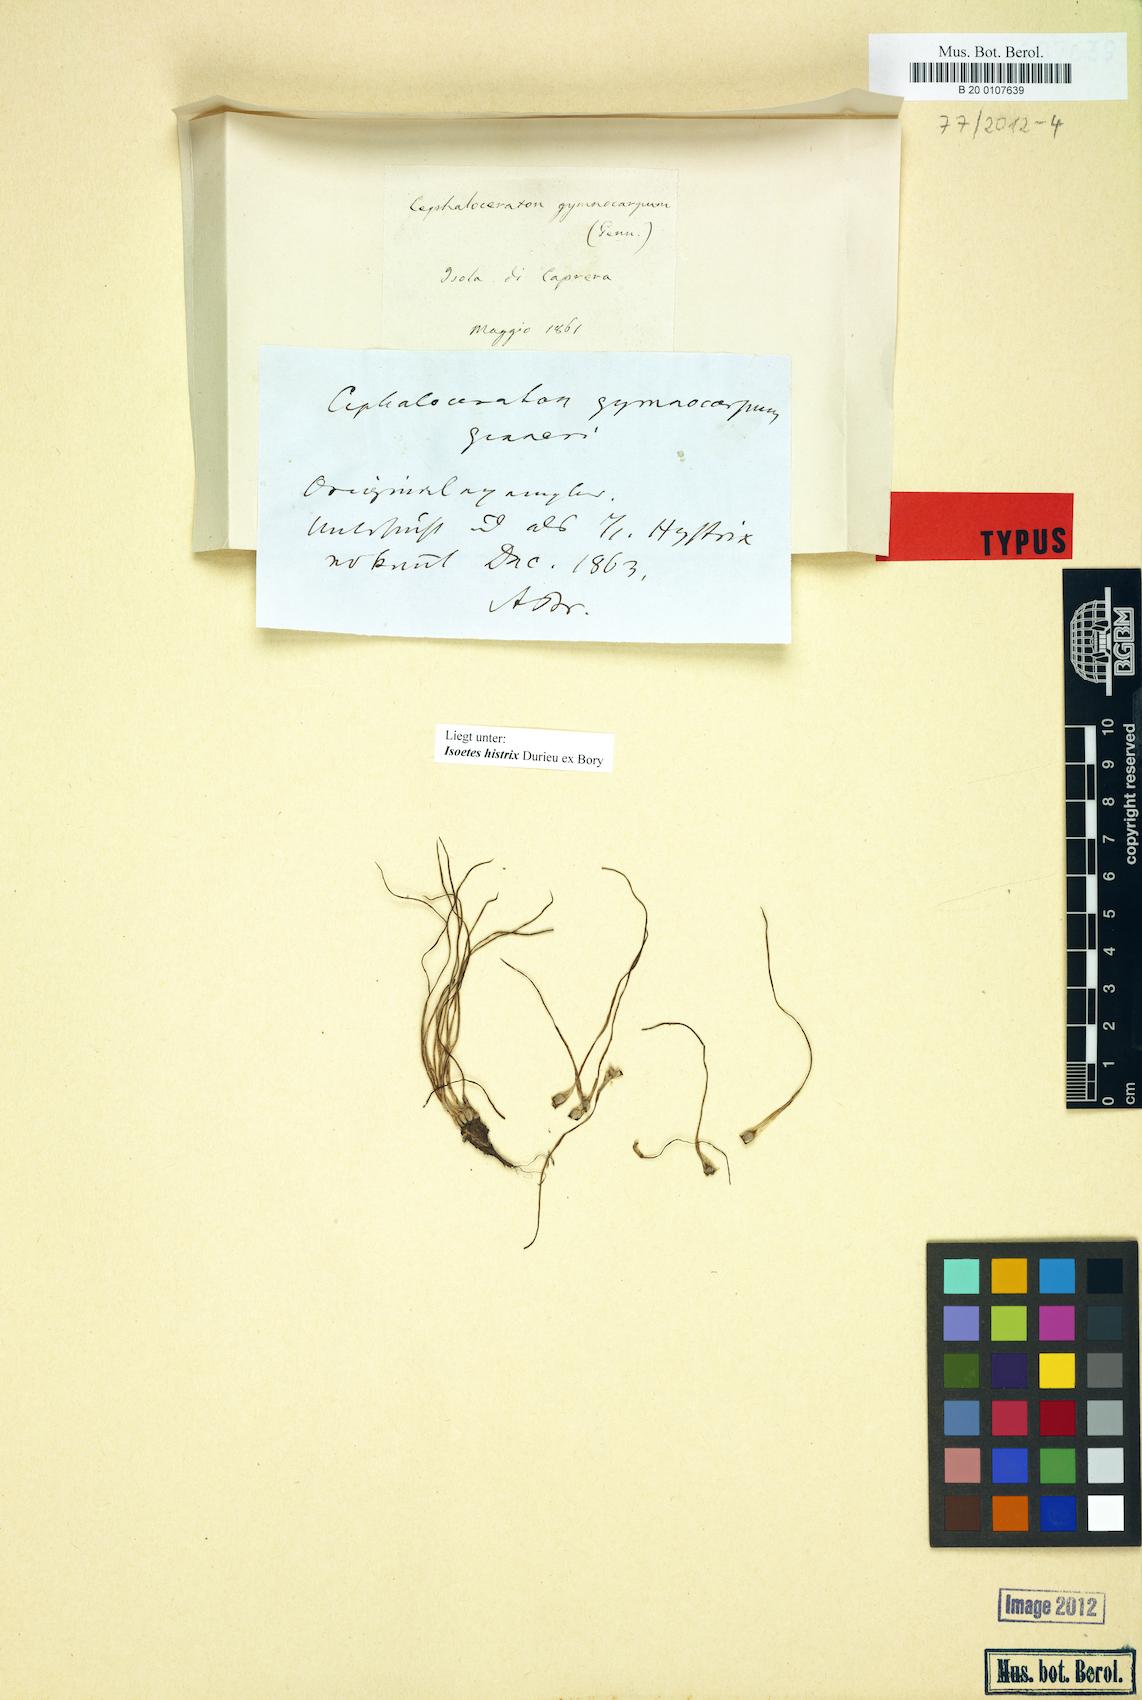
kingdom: Plantae
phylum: Tracheophyta
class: Lycopodiopsida
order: Isoetales
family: Isoetaceae
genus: Isoetes
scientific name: Isoetes histrix
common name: Land quillwort
